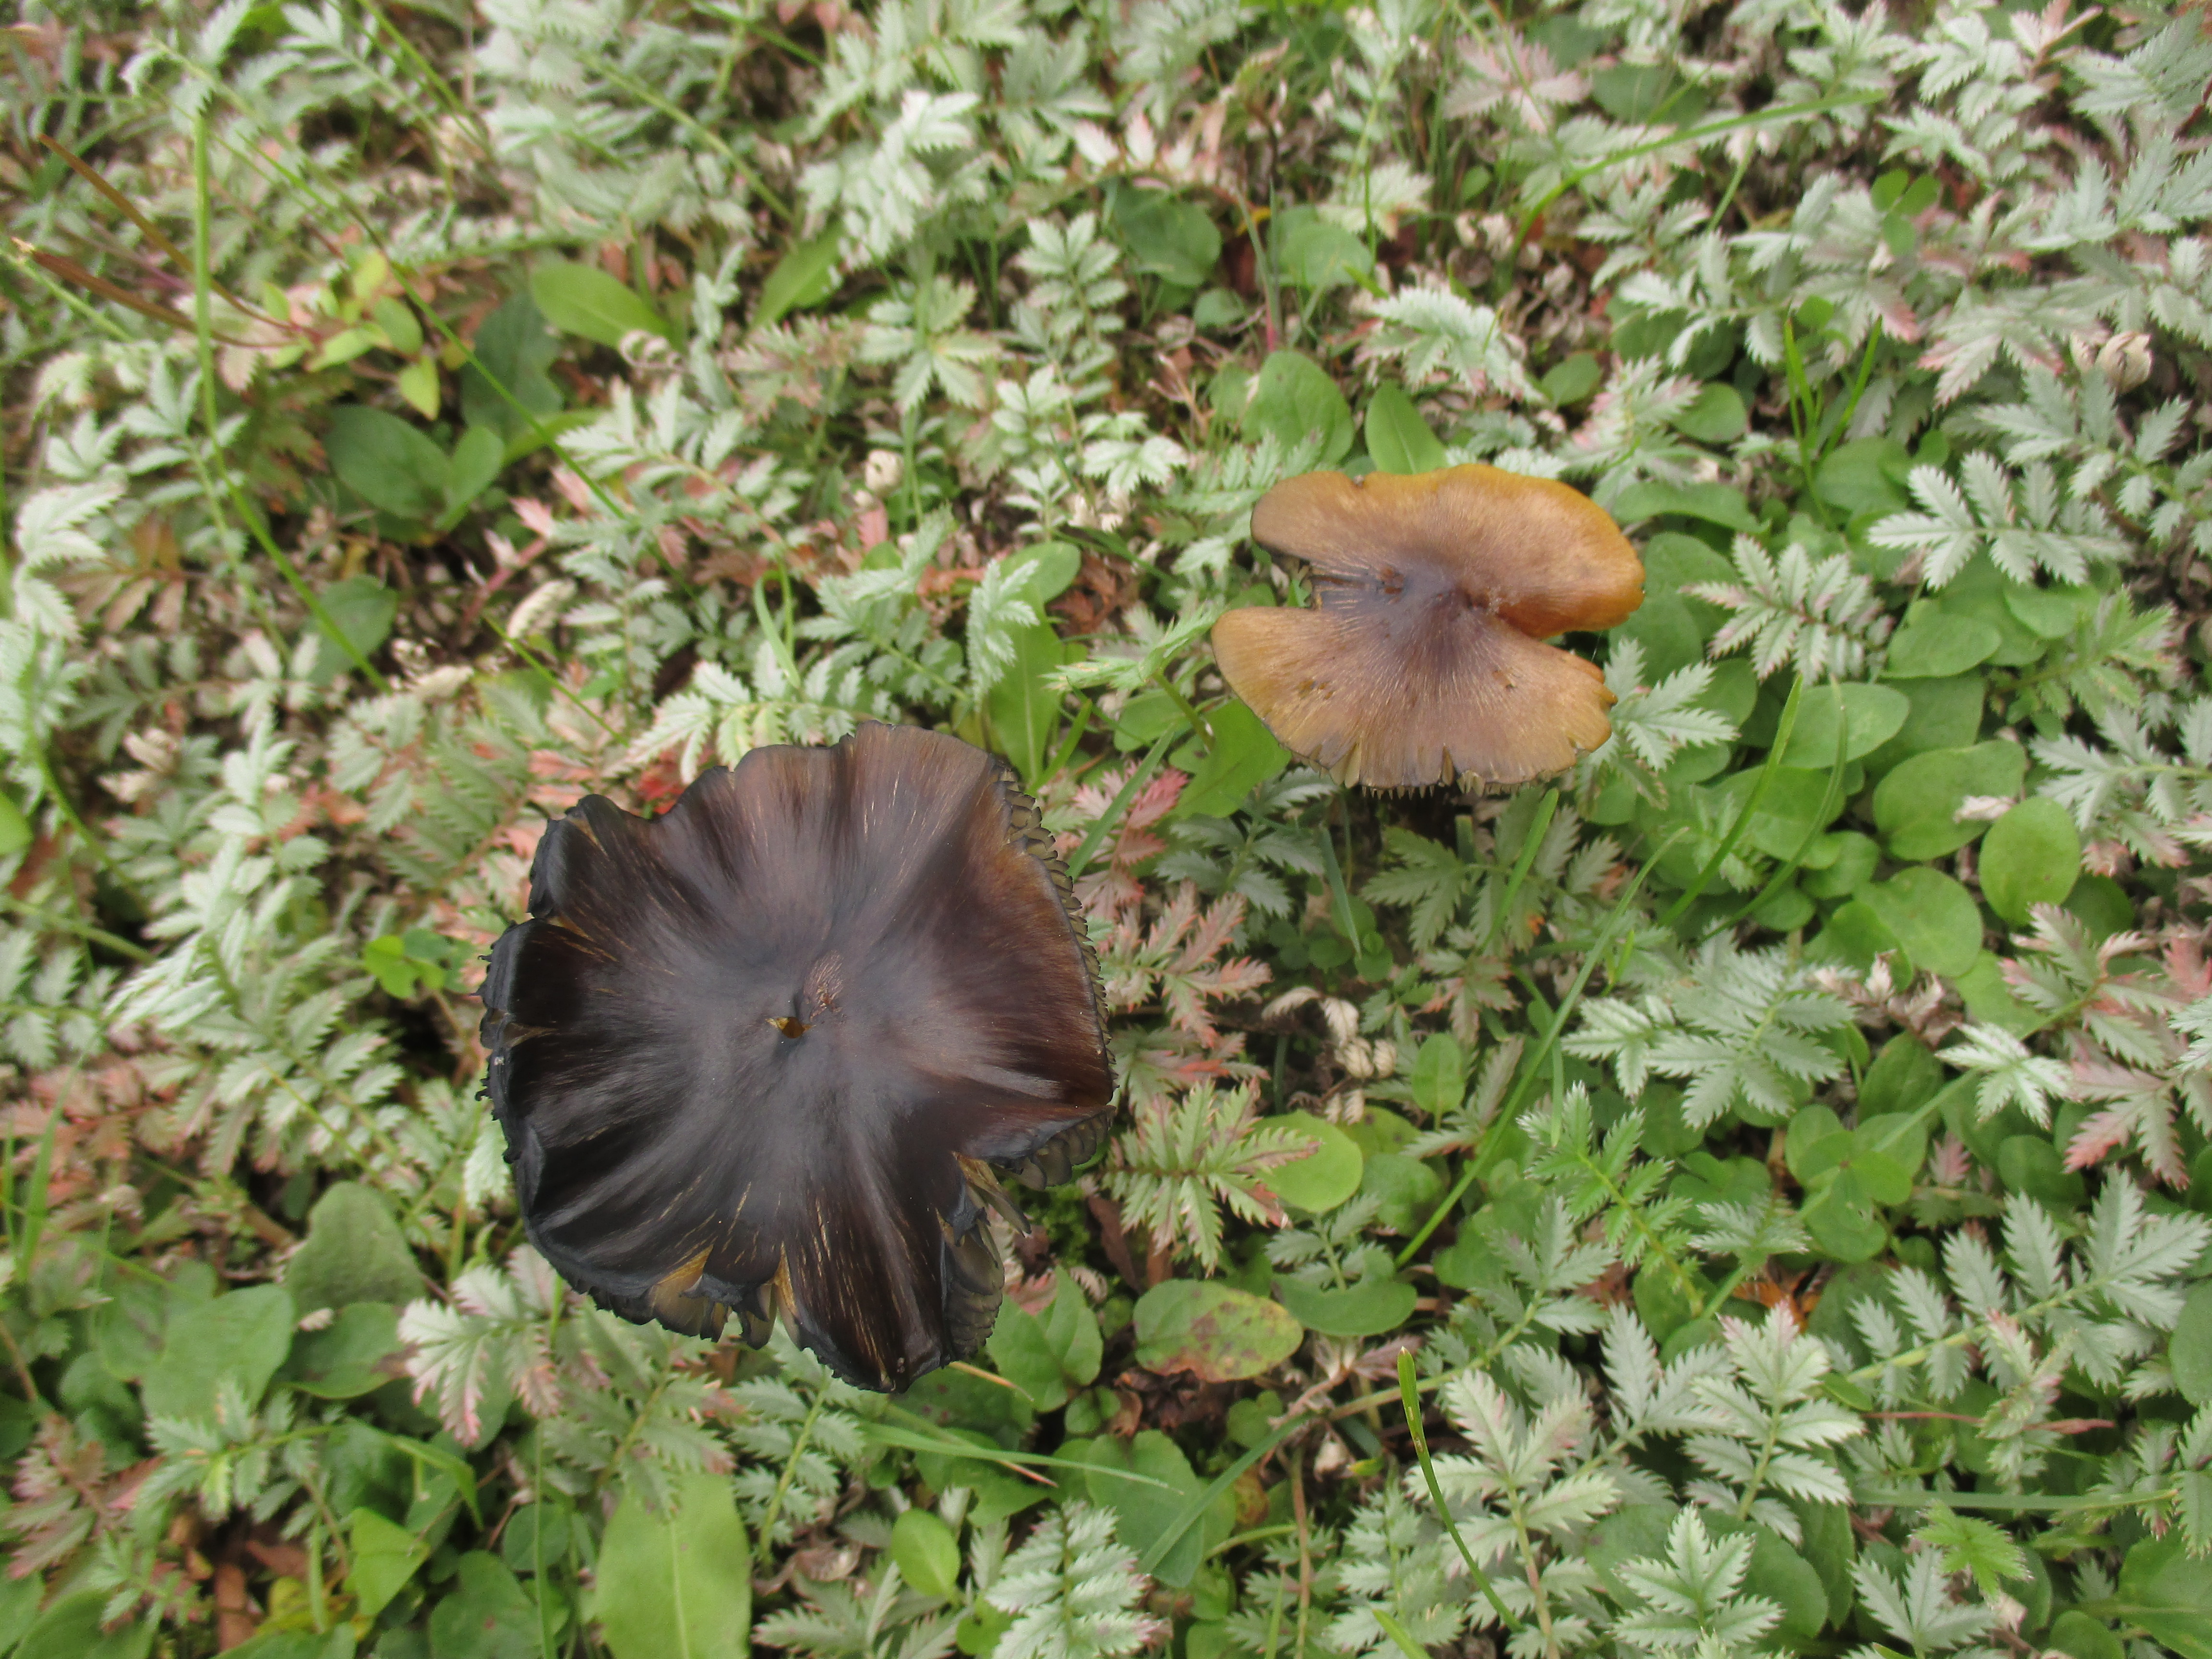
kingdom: Fungi
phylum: Basidiomycota
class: Agaricomycetes
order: Agaricales
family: Hygrophoraceae
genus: Hygrocybe
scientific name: Hygrocybe conica
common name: Blackening wax-cap
